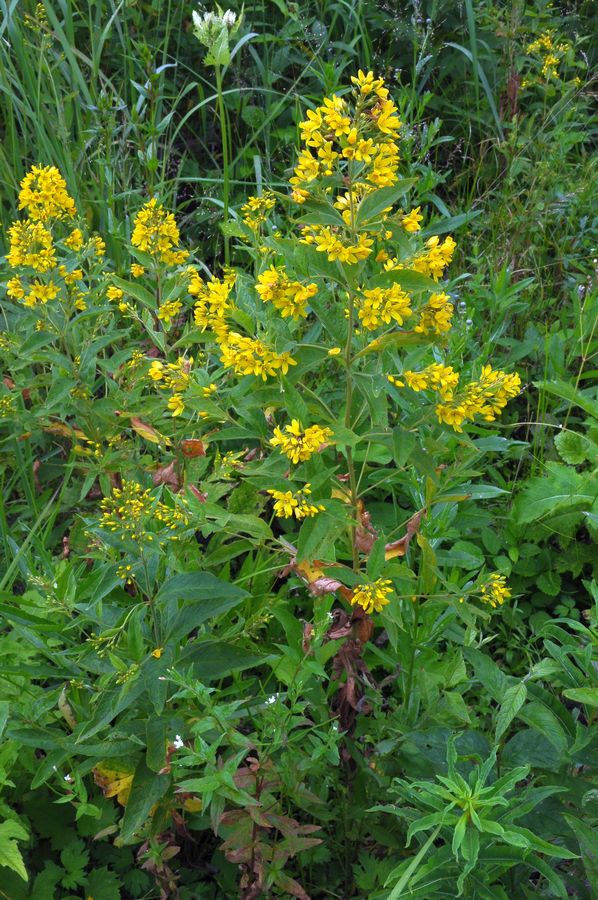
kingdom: Plantae
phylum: Tracheophyta
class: Magnoliopsida
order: Ericales
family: Primulaceae
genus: Lysimachia
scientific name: Lysimachia vulgaris
